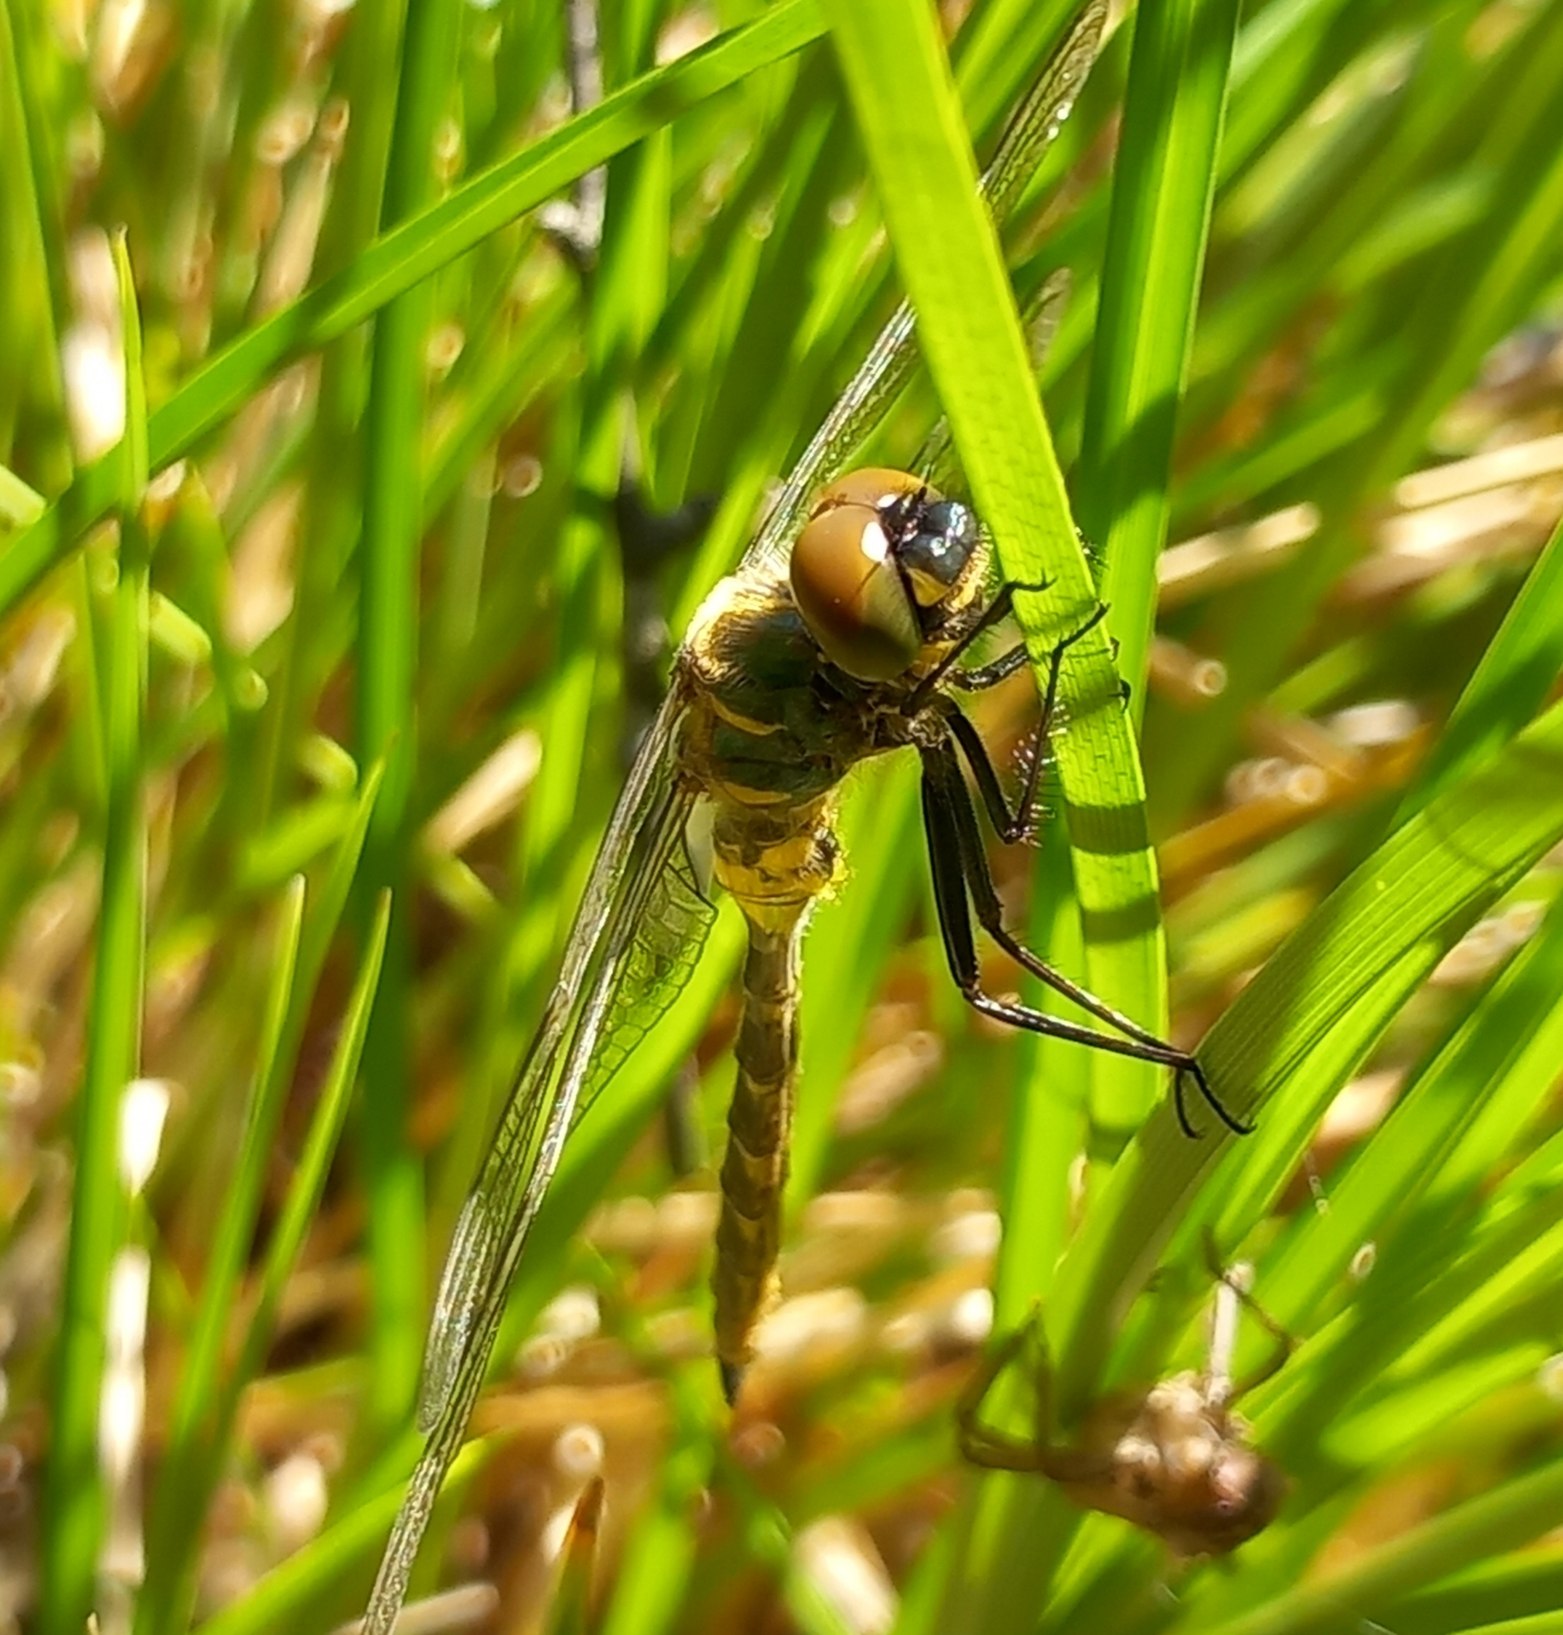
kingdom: Animalia
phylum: Arthropoda
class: Insecta
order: Odonata
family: Corduliidae
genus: Somatochlora
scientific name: Somatochlora flavomaculata
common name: Plettet smaragdlibel
